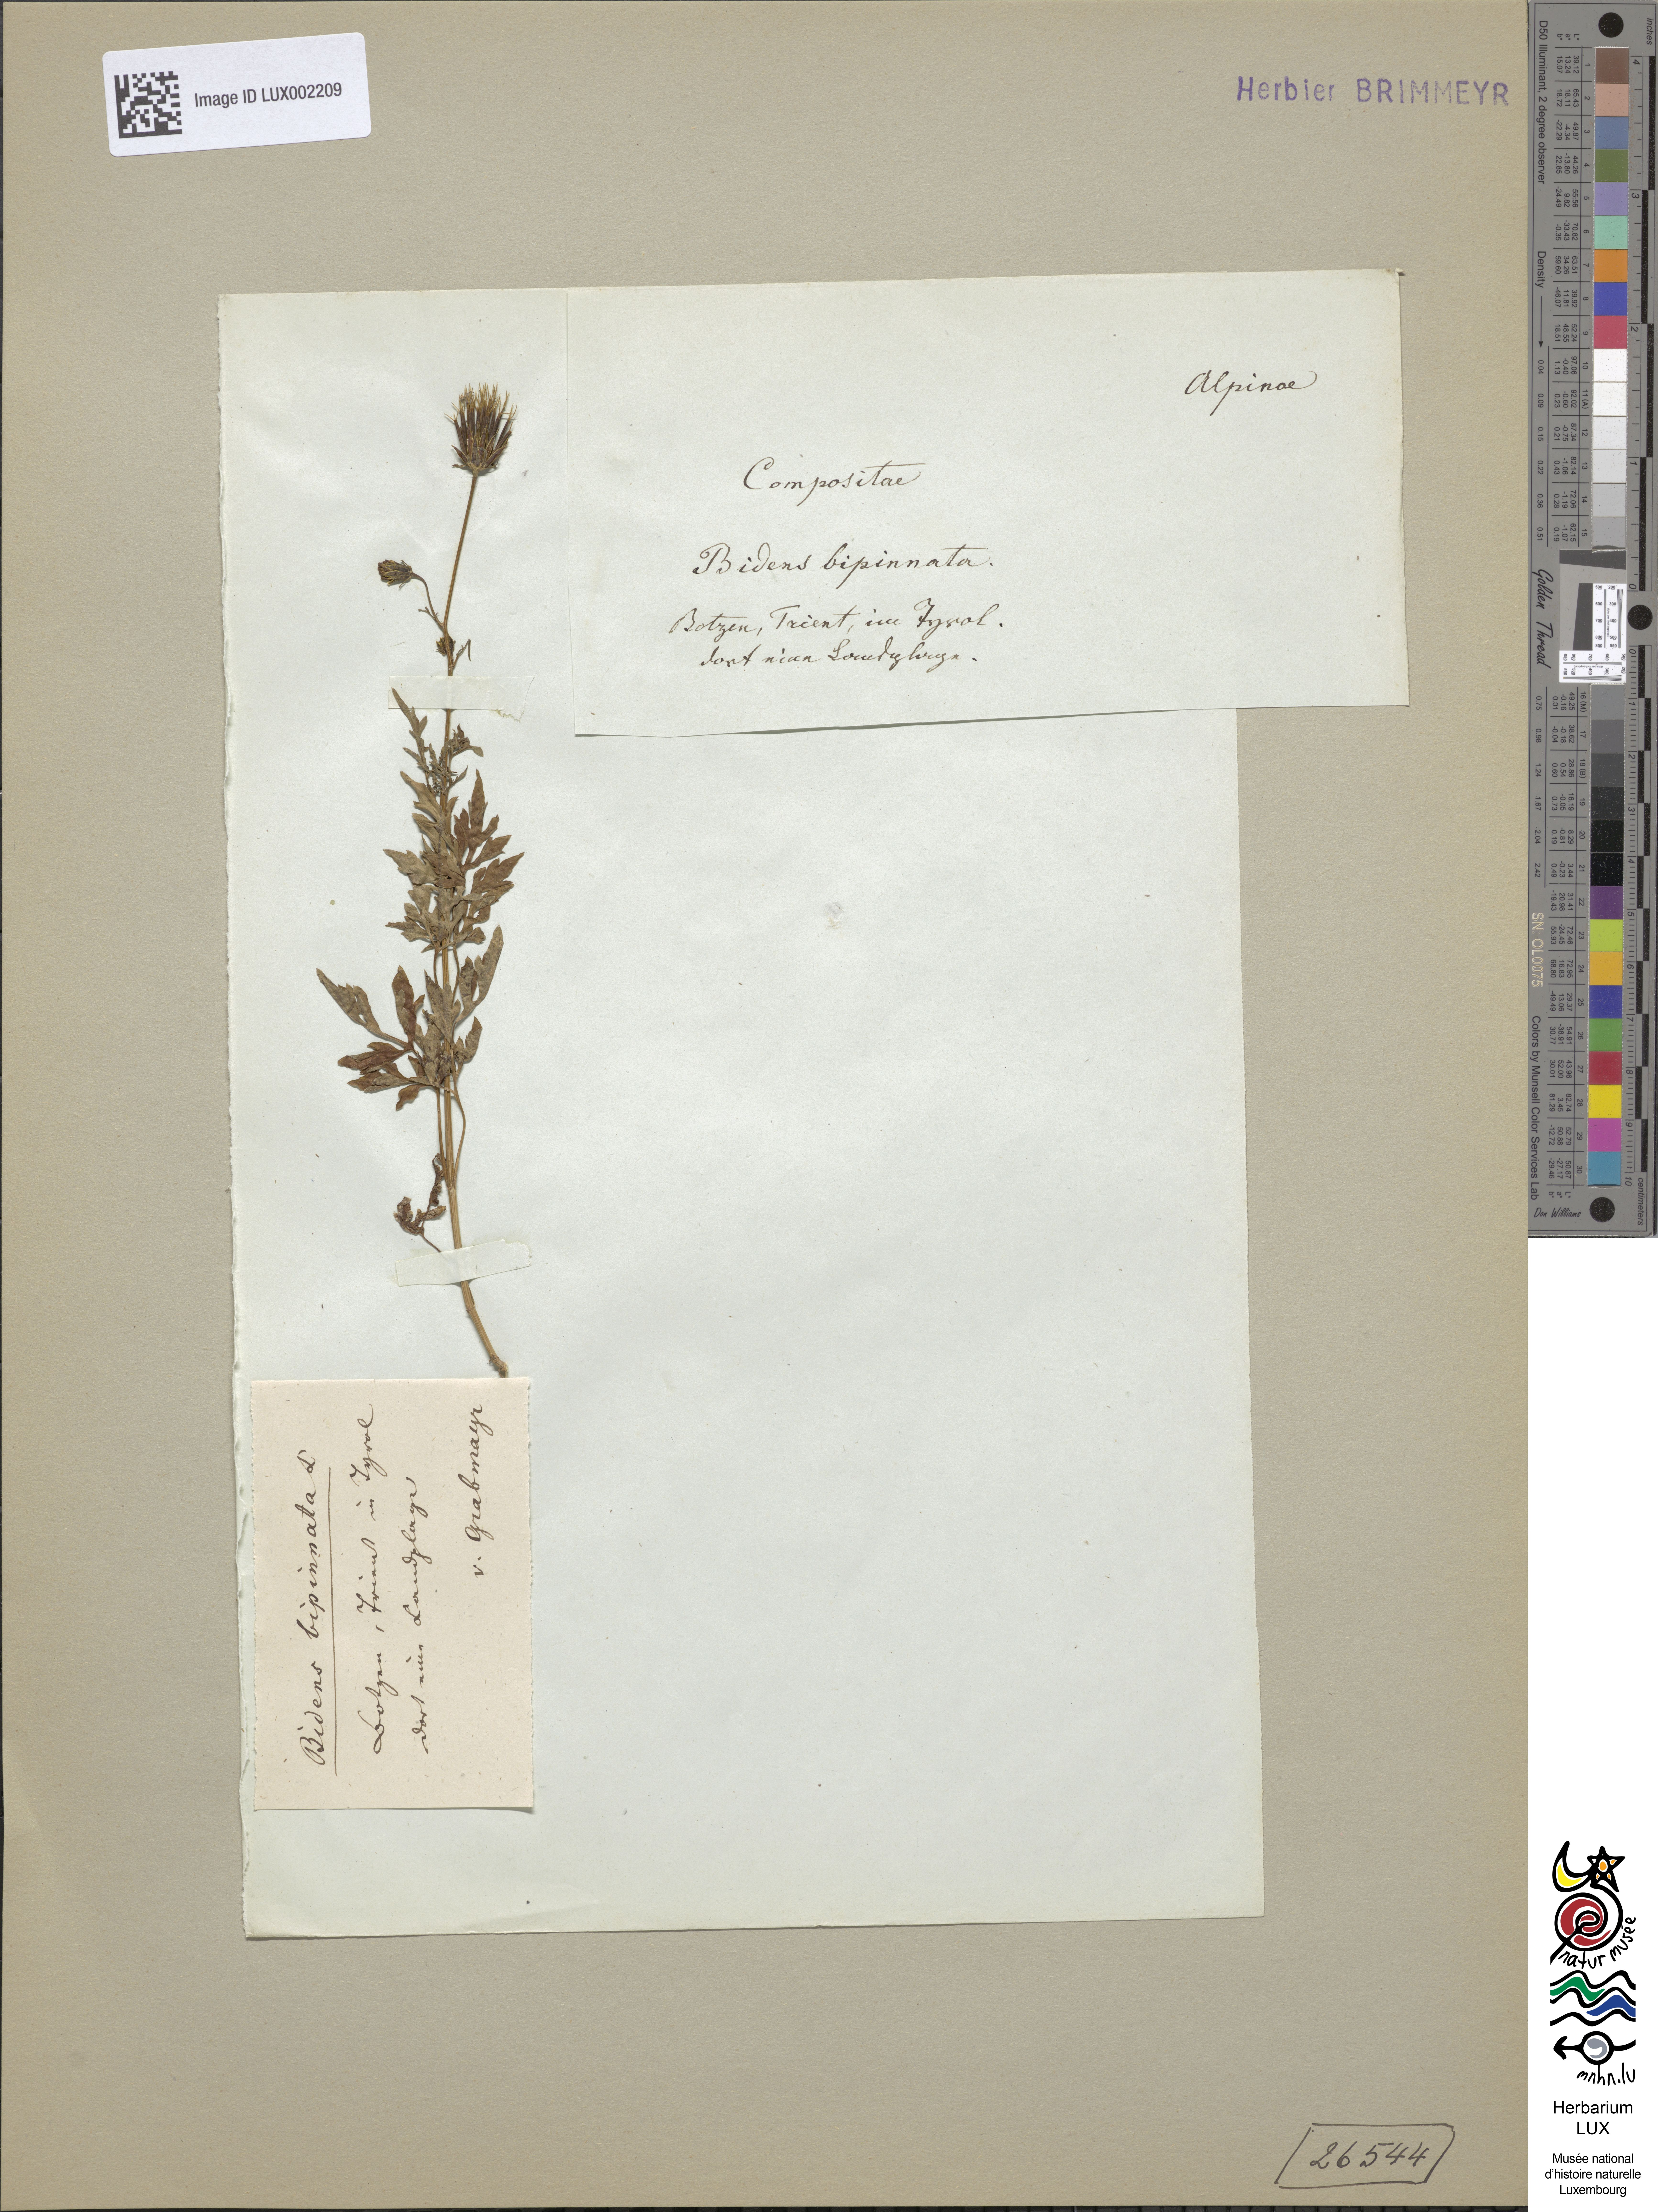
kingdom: Plantae
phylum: Tracheophyta
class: Magnoliopsida
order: Asterales
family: Asteraceae
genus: Bidens
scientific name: Bidens bipinnata
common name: Spanish-needles
